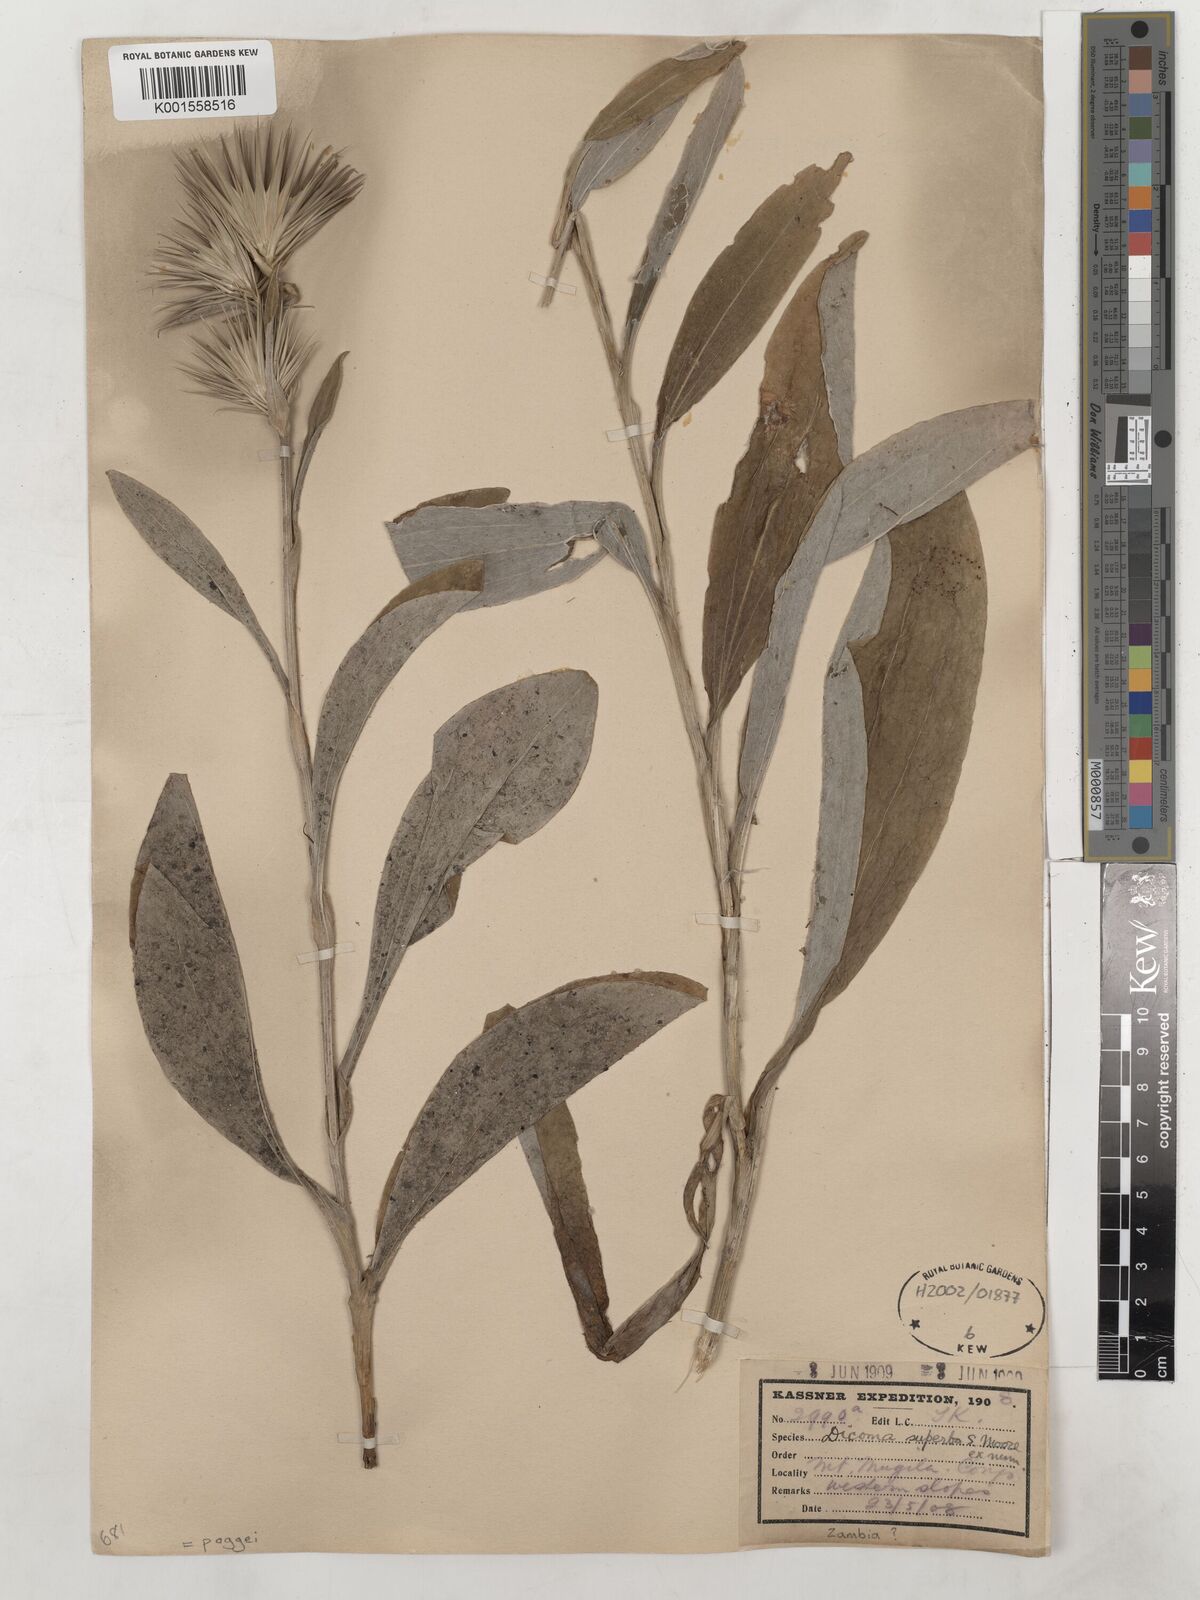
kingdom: Plantae
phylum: Tracheophyta
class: Magnoliopsida
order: Asterales
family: Asteraceae
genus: Macledium
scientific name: Macledium poggei
